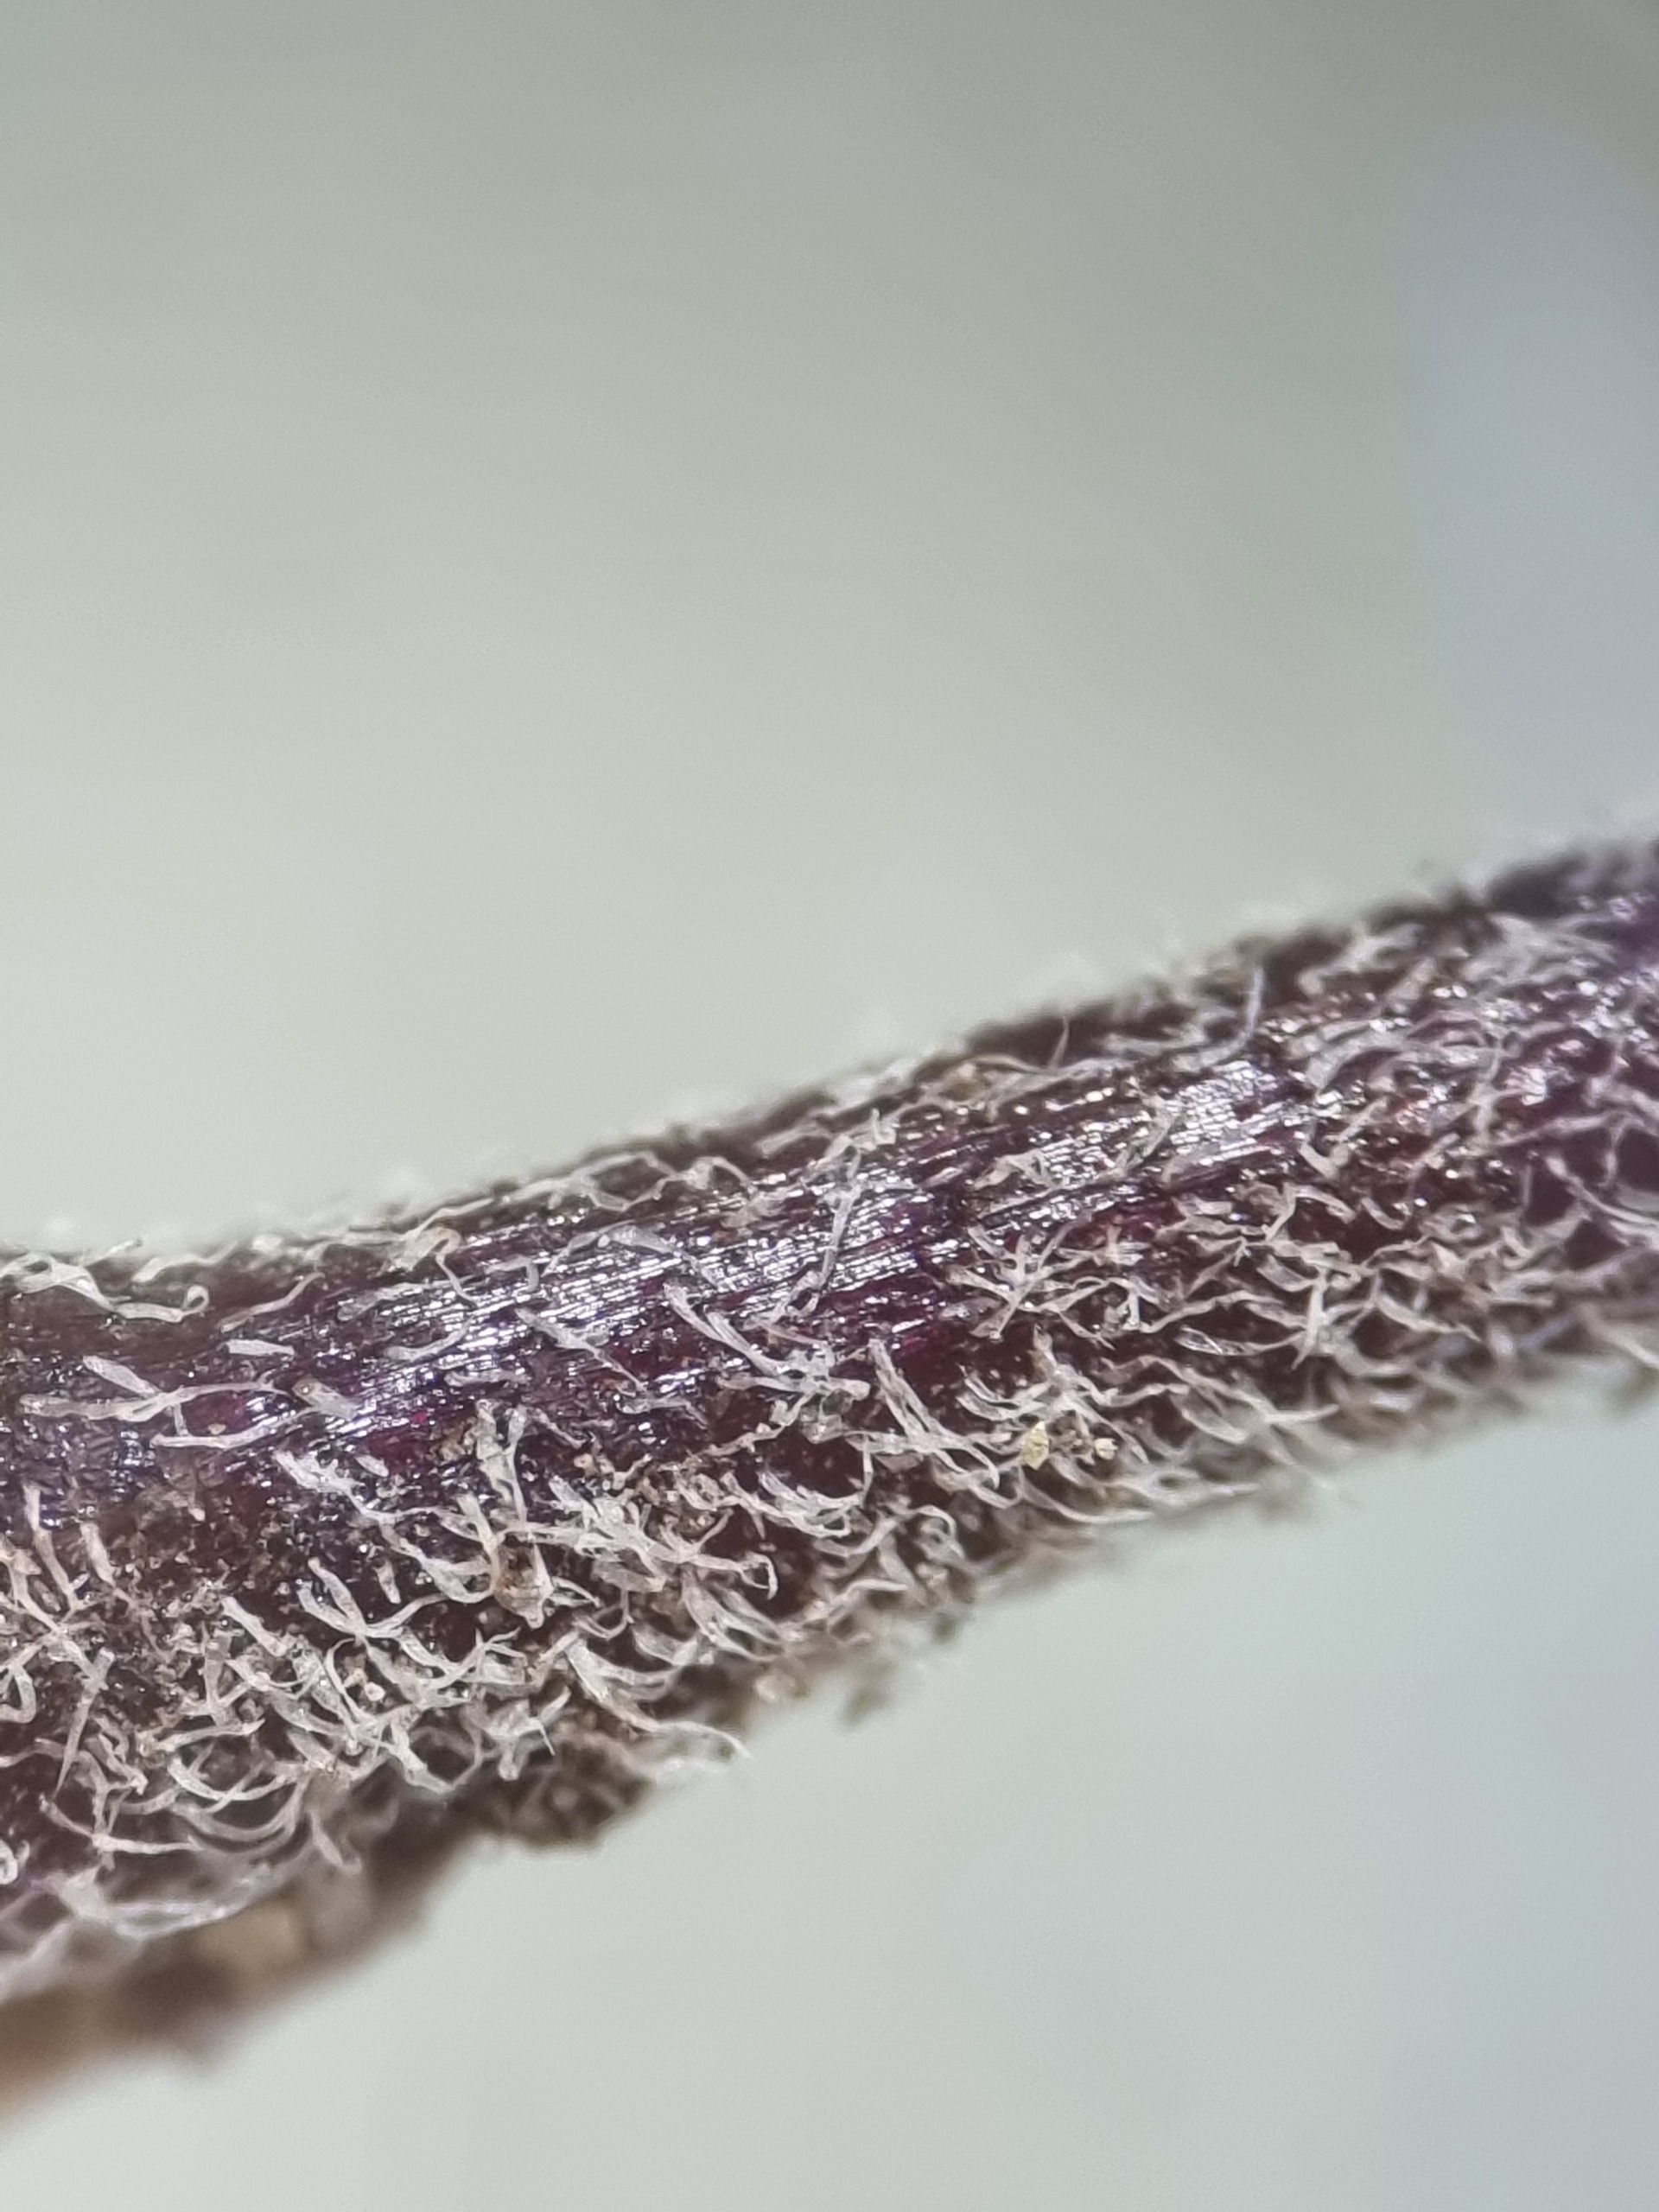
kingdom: Plantae
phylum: Tracheophyta
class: Magnoliopsida
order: Lamiales
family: Orobanchaceae
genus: Euphrasia
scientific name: Euphrasia stricta
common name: Spids øjentrøst
